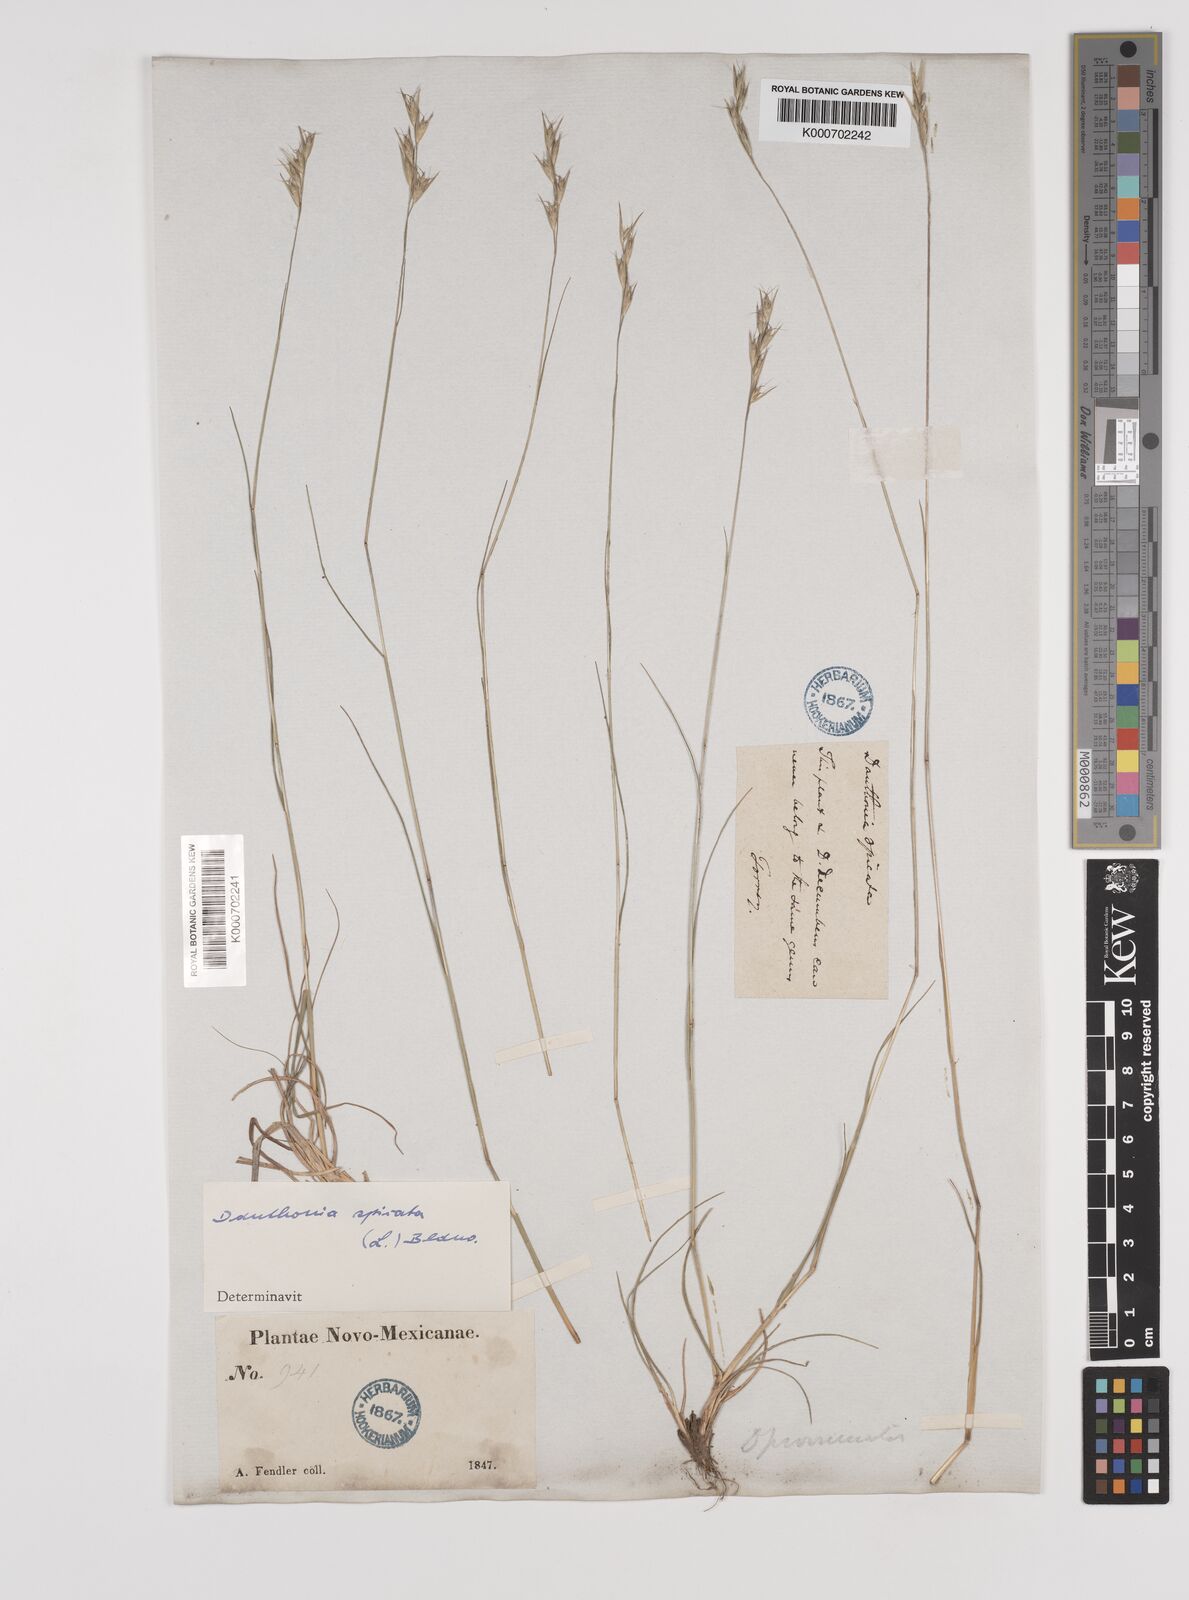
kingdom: Plantae
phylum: Tracheophyta
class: Liliopsida
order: Poales
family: Poaceae
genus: Danthonia
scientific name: Danthonia spicata
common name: Common wild oatgrass
